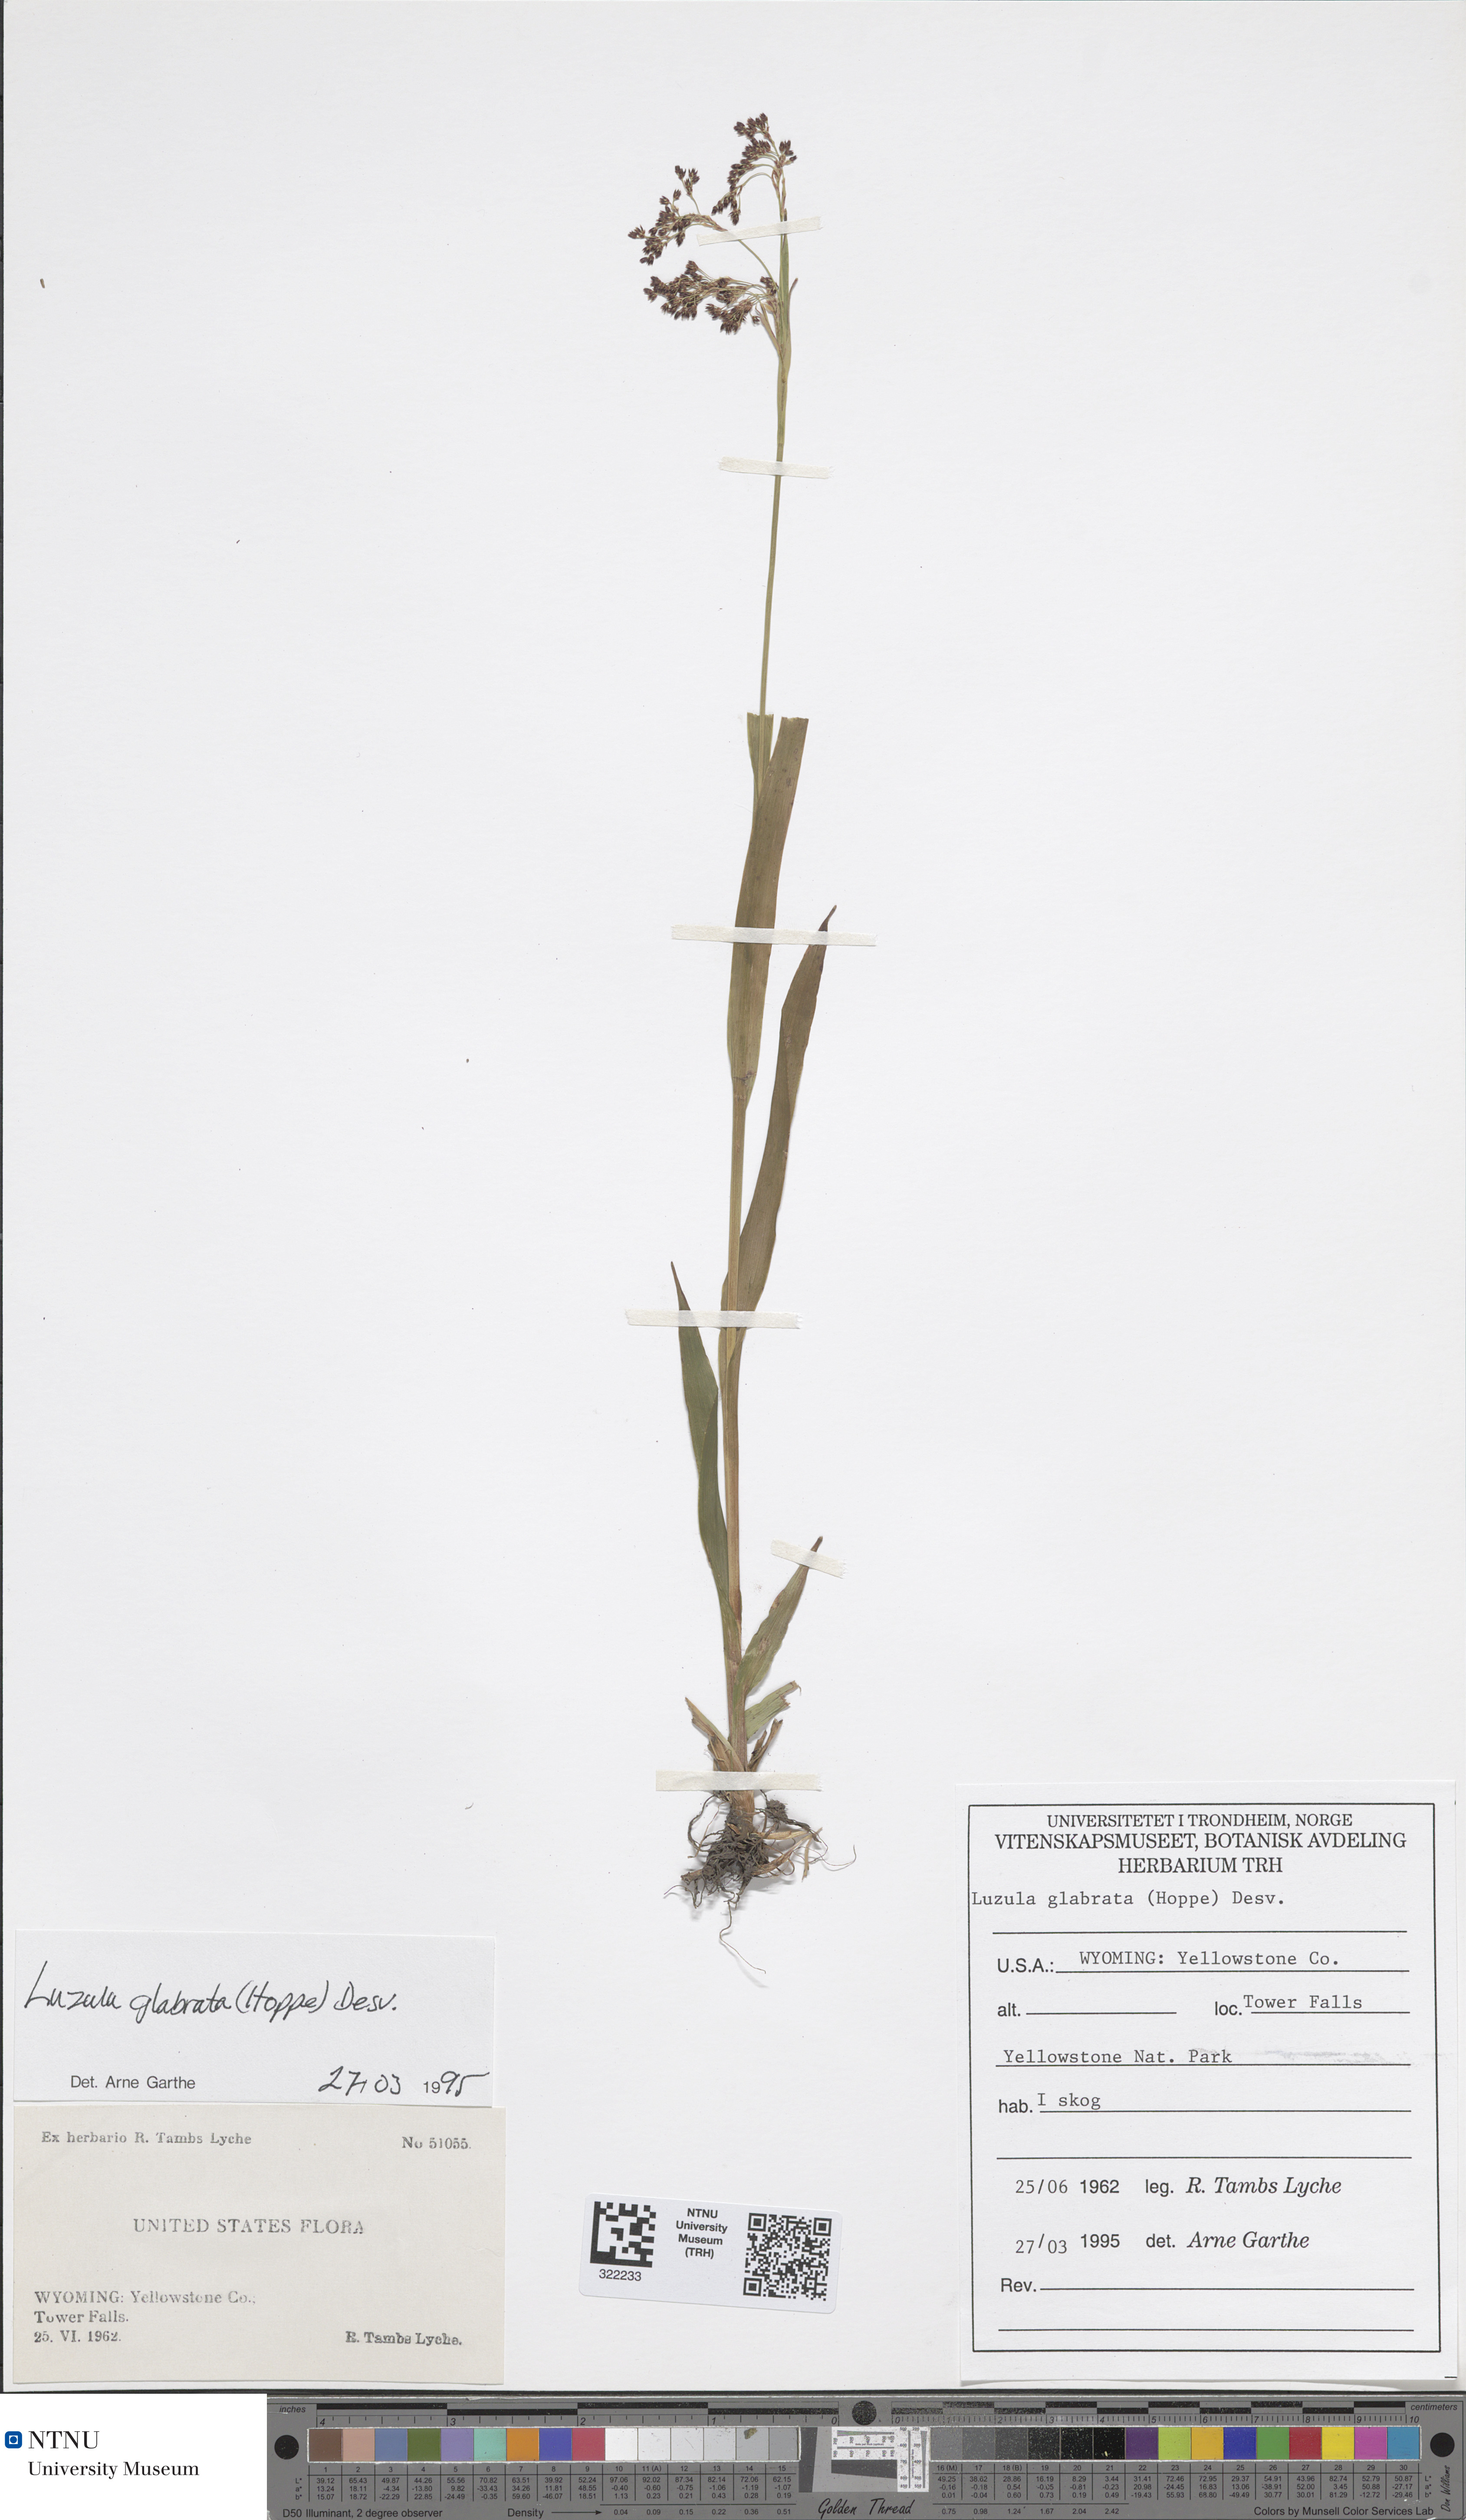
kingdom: Plantae
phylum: Tracheophyta
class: Liliopsida
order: Poales
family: Juncaceae
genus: Luzula
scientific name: Luzula parviflora
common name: Millet woodrush
